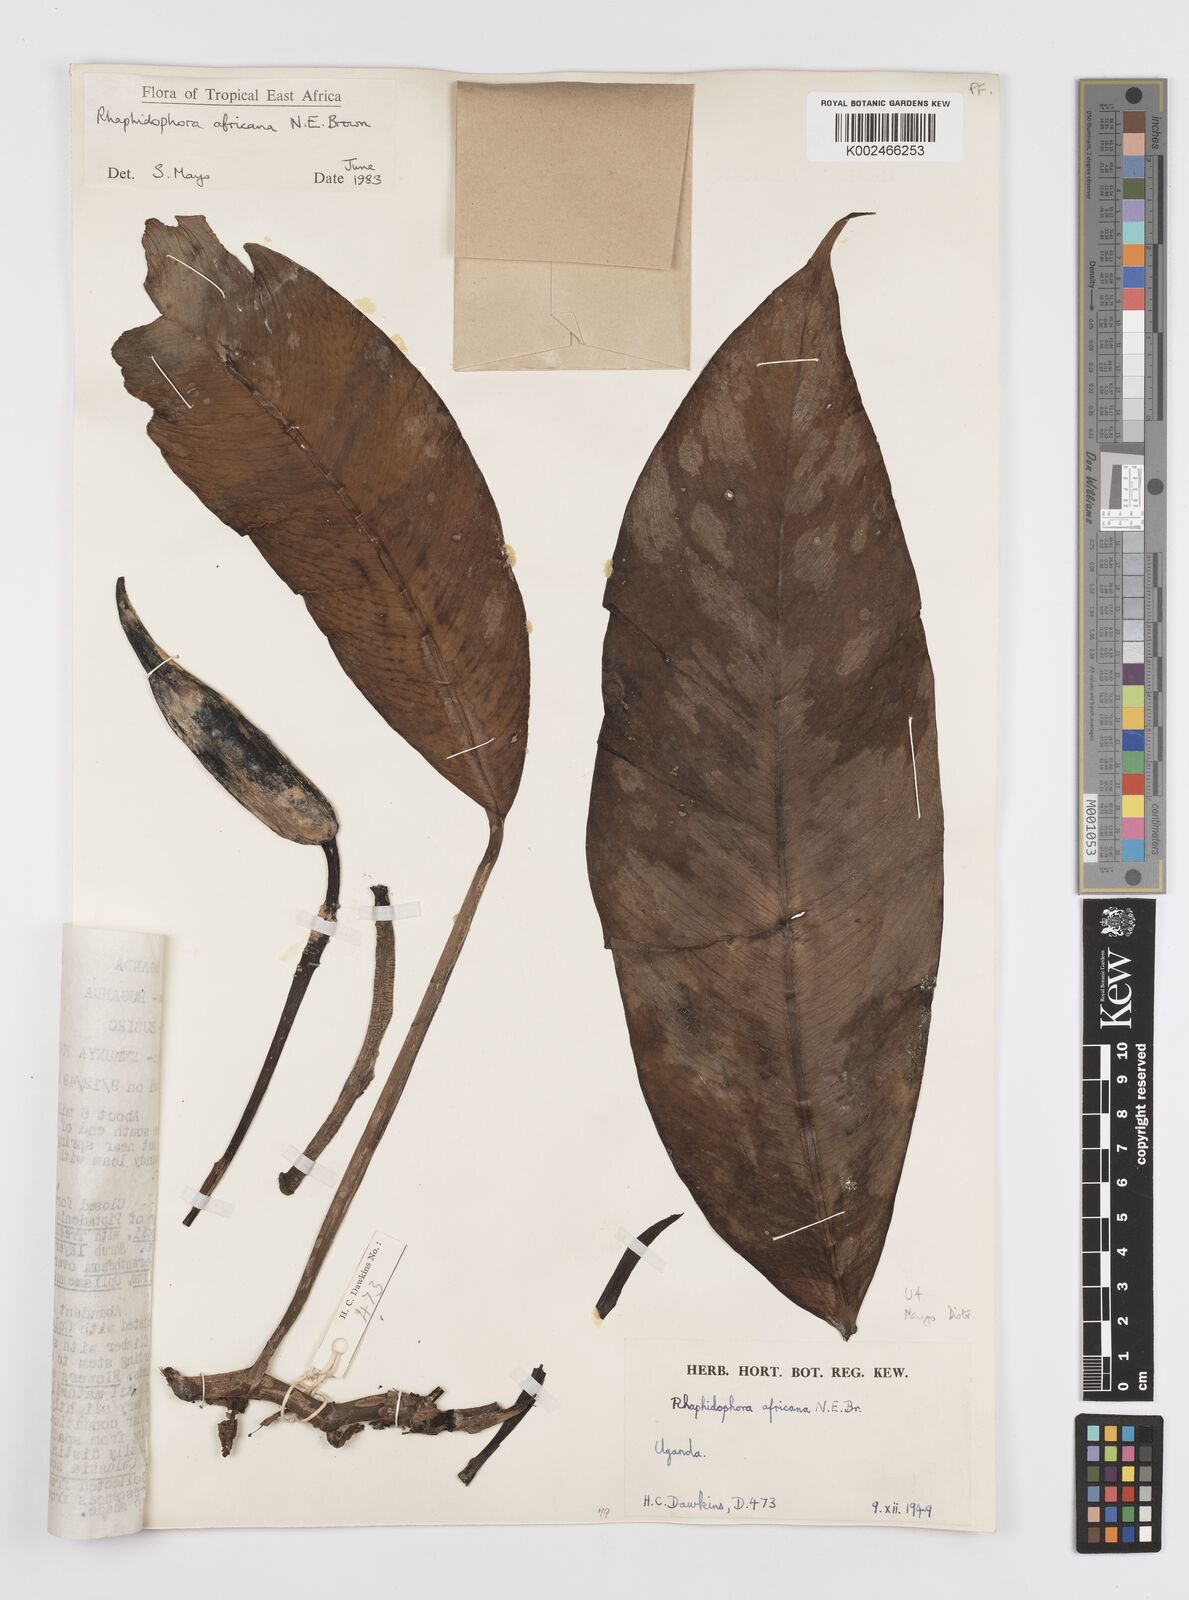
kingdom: Plantae
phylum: Tracheophyta
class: Liliopsida
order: Alismatales
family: Araceae
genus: Rhaphidophora
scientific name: Rhaphidophora africana
